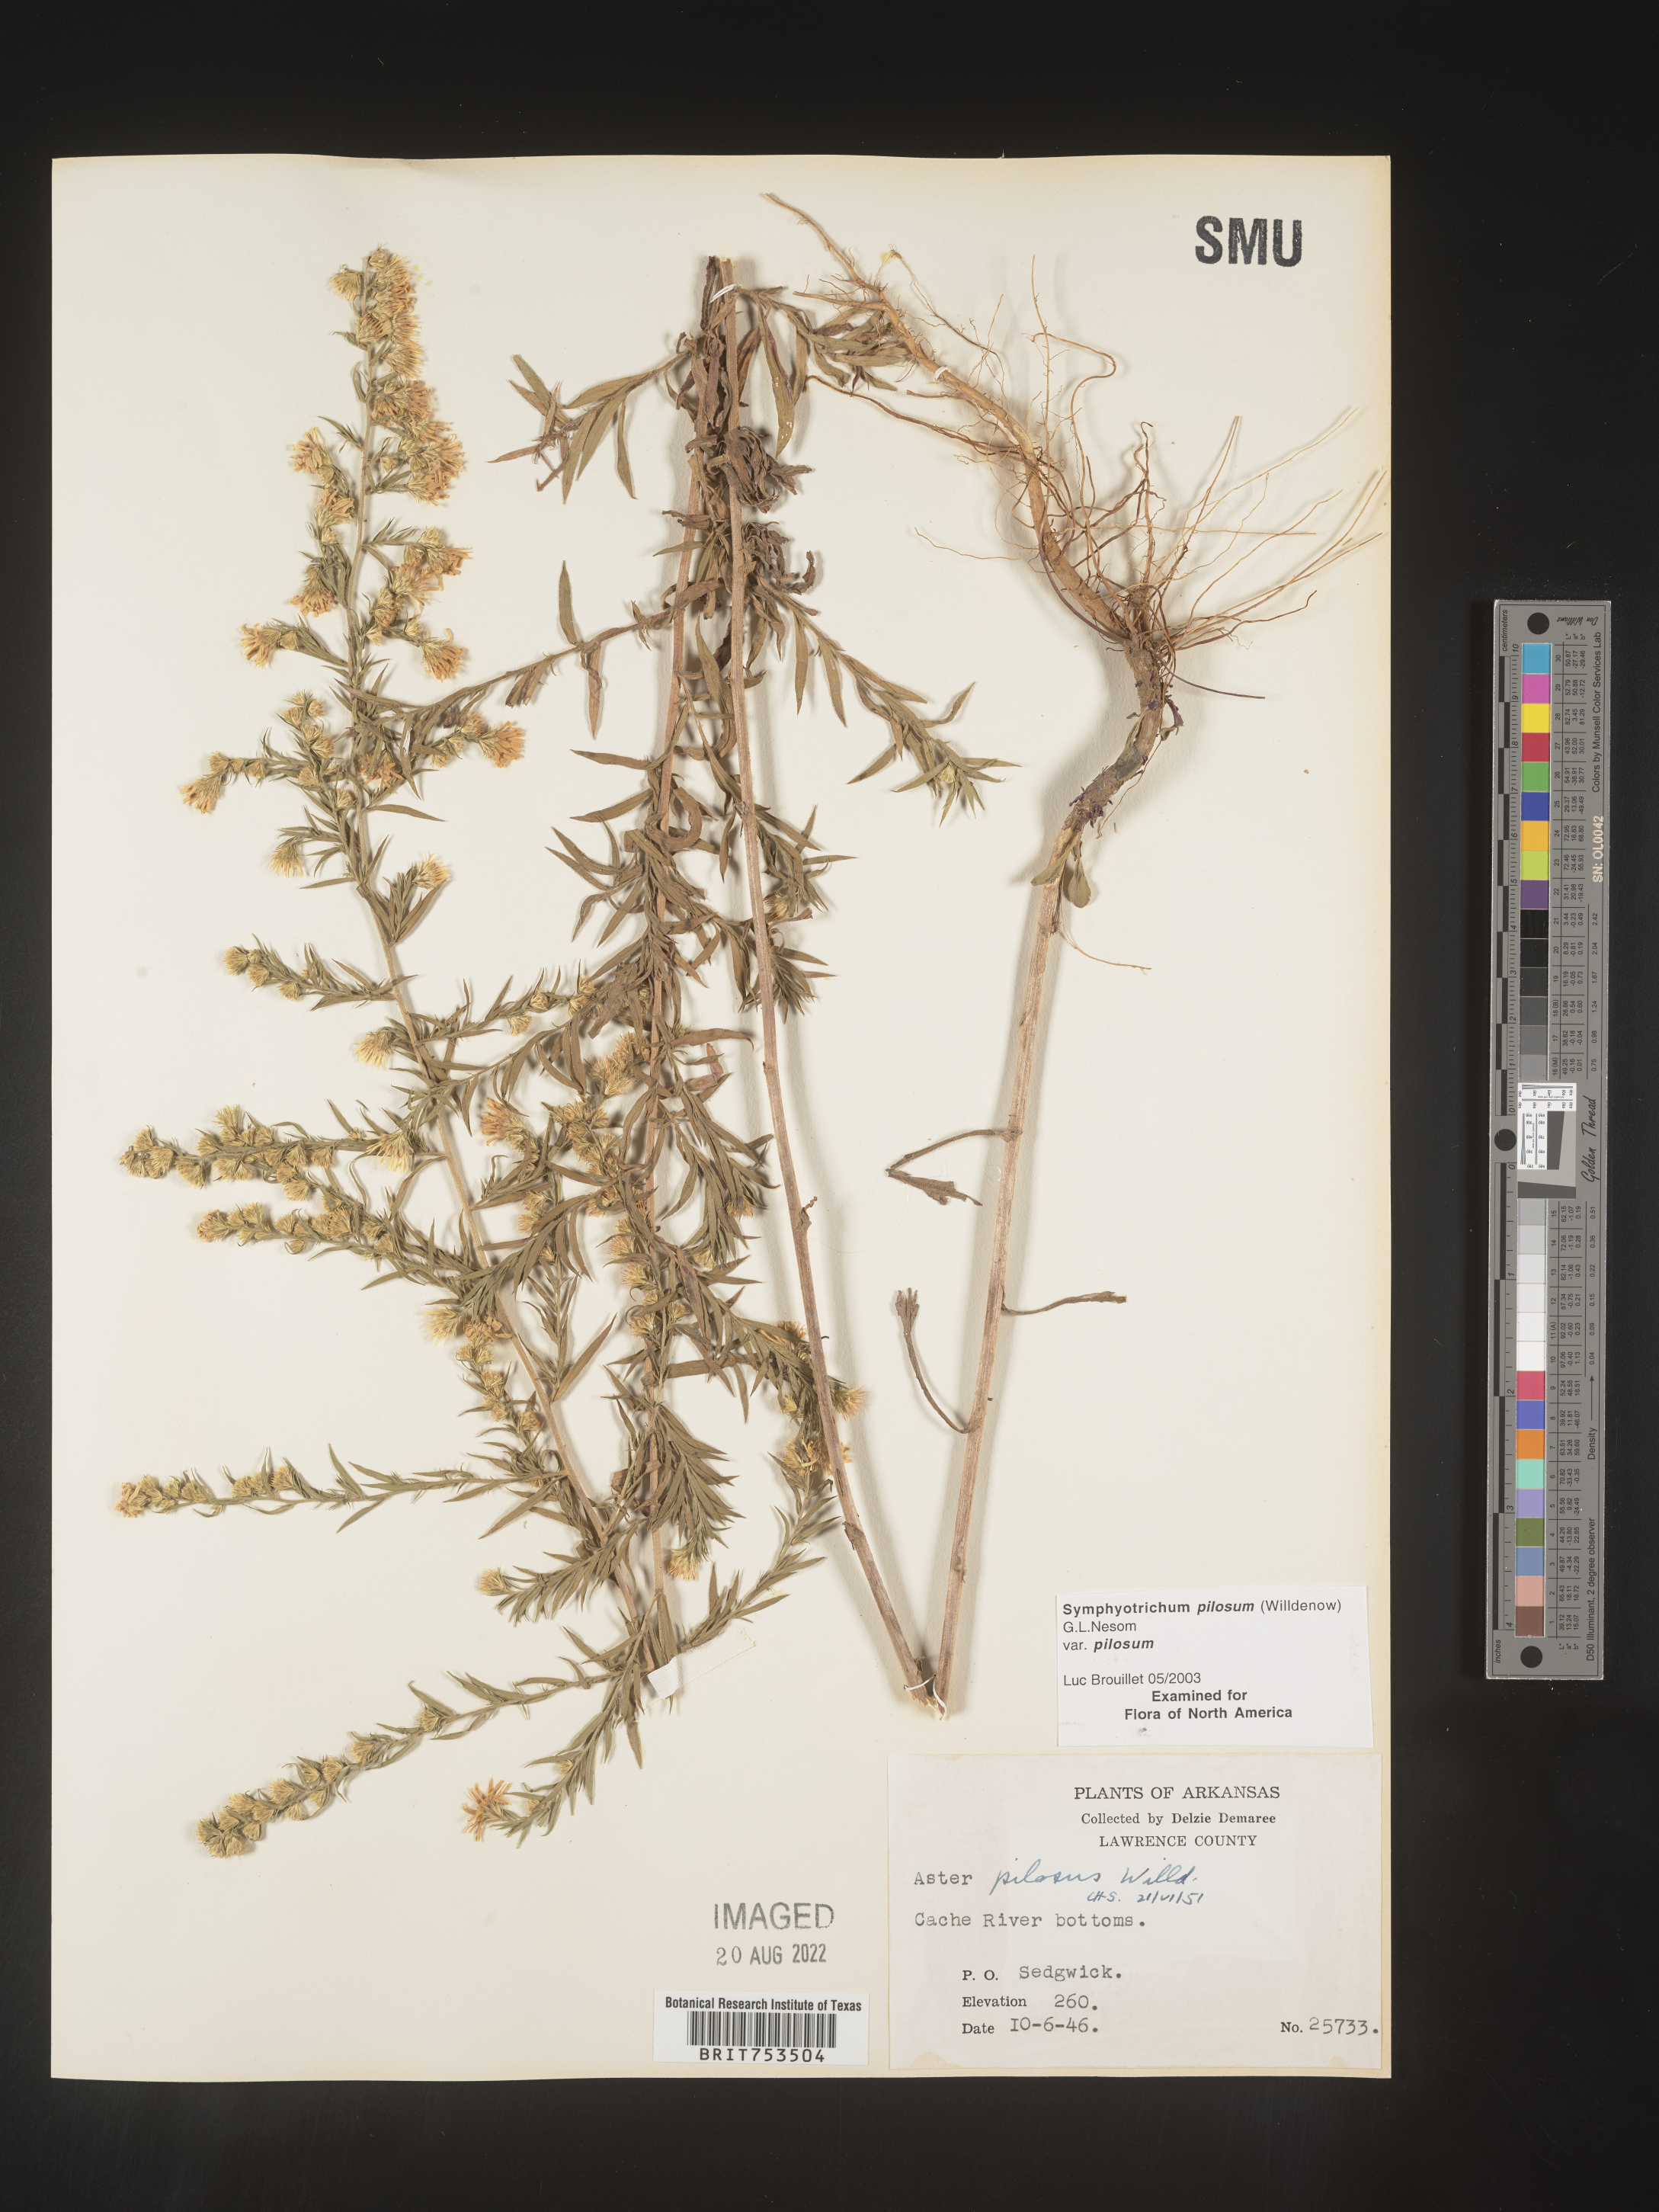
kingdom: Plantae
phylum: Tracheophyta
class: Magnoliopsida
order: Asterales
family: Asteraceae
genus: Symphyotrichum
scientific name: Symphyotrichum pilosum
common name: Awl aster
